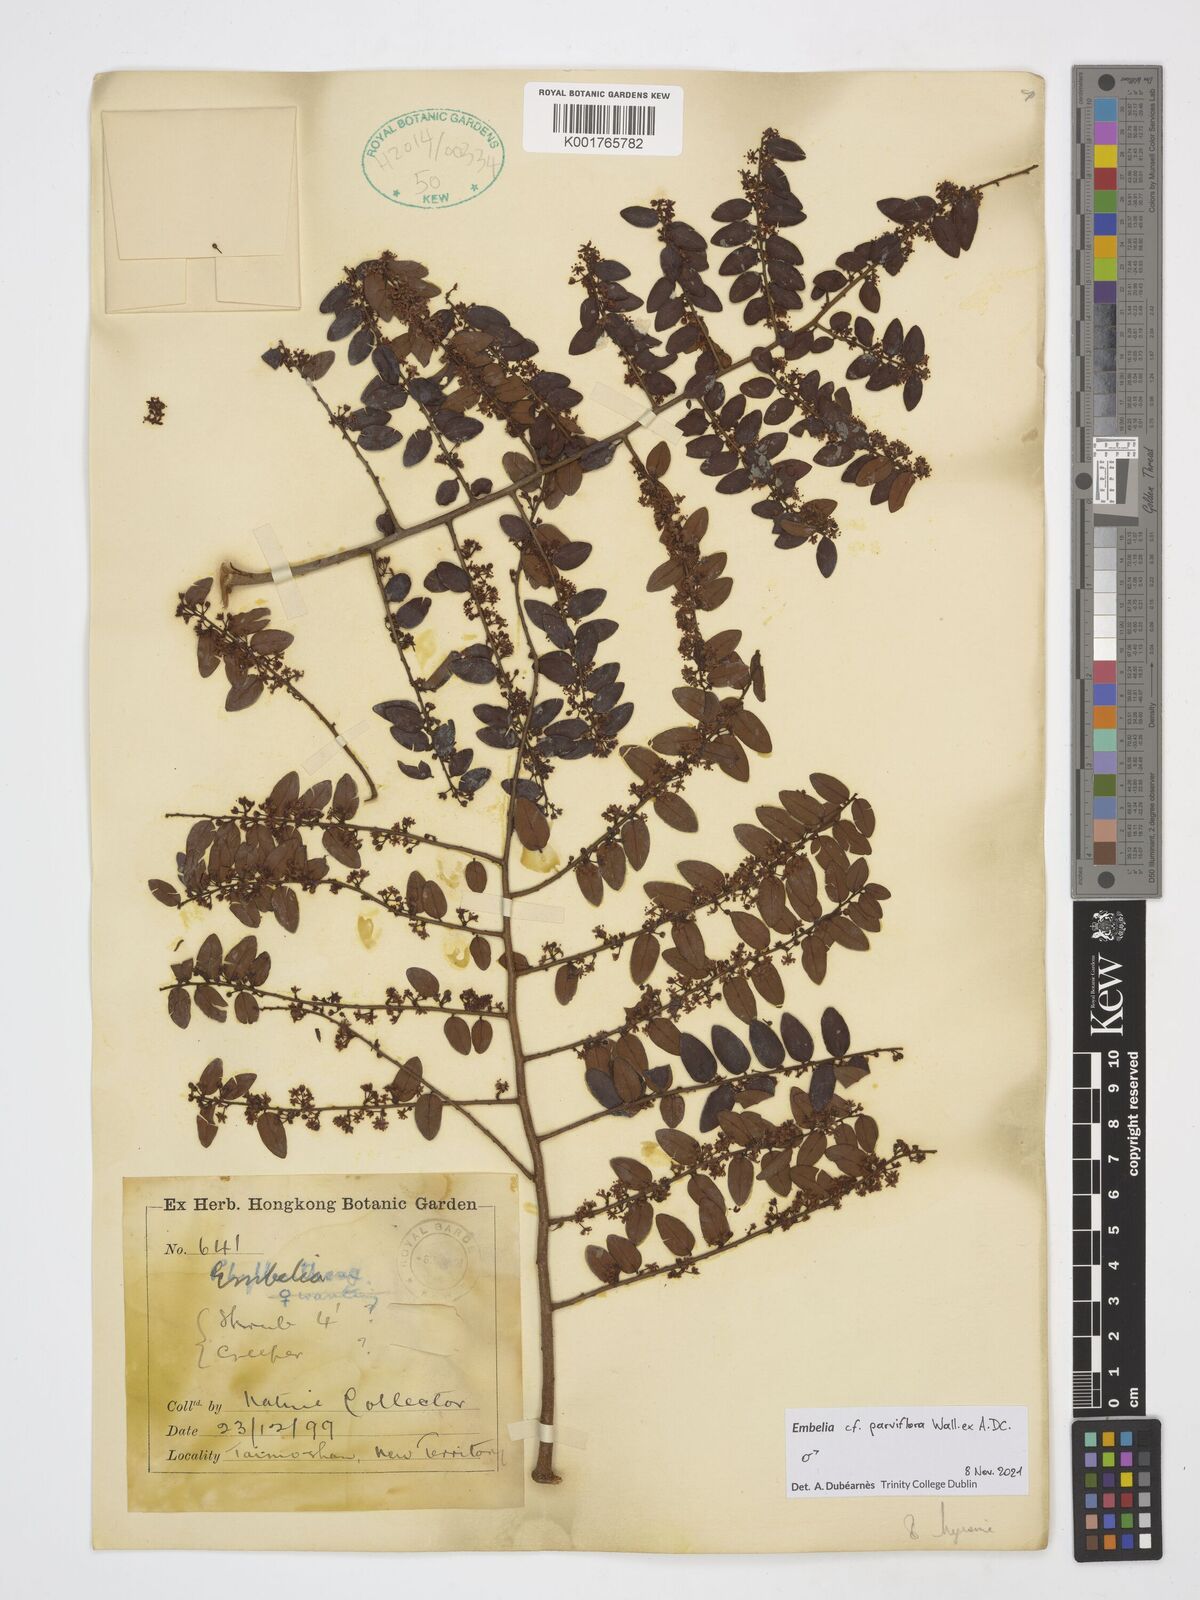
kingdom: Plantae
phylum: Tracheophyta
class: Magnoliopsida
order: Ericales
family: Primulaceae
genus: Embelia
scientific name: Embelia parviflora
